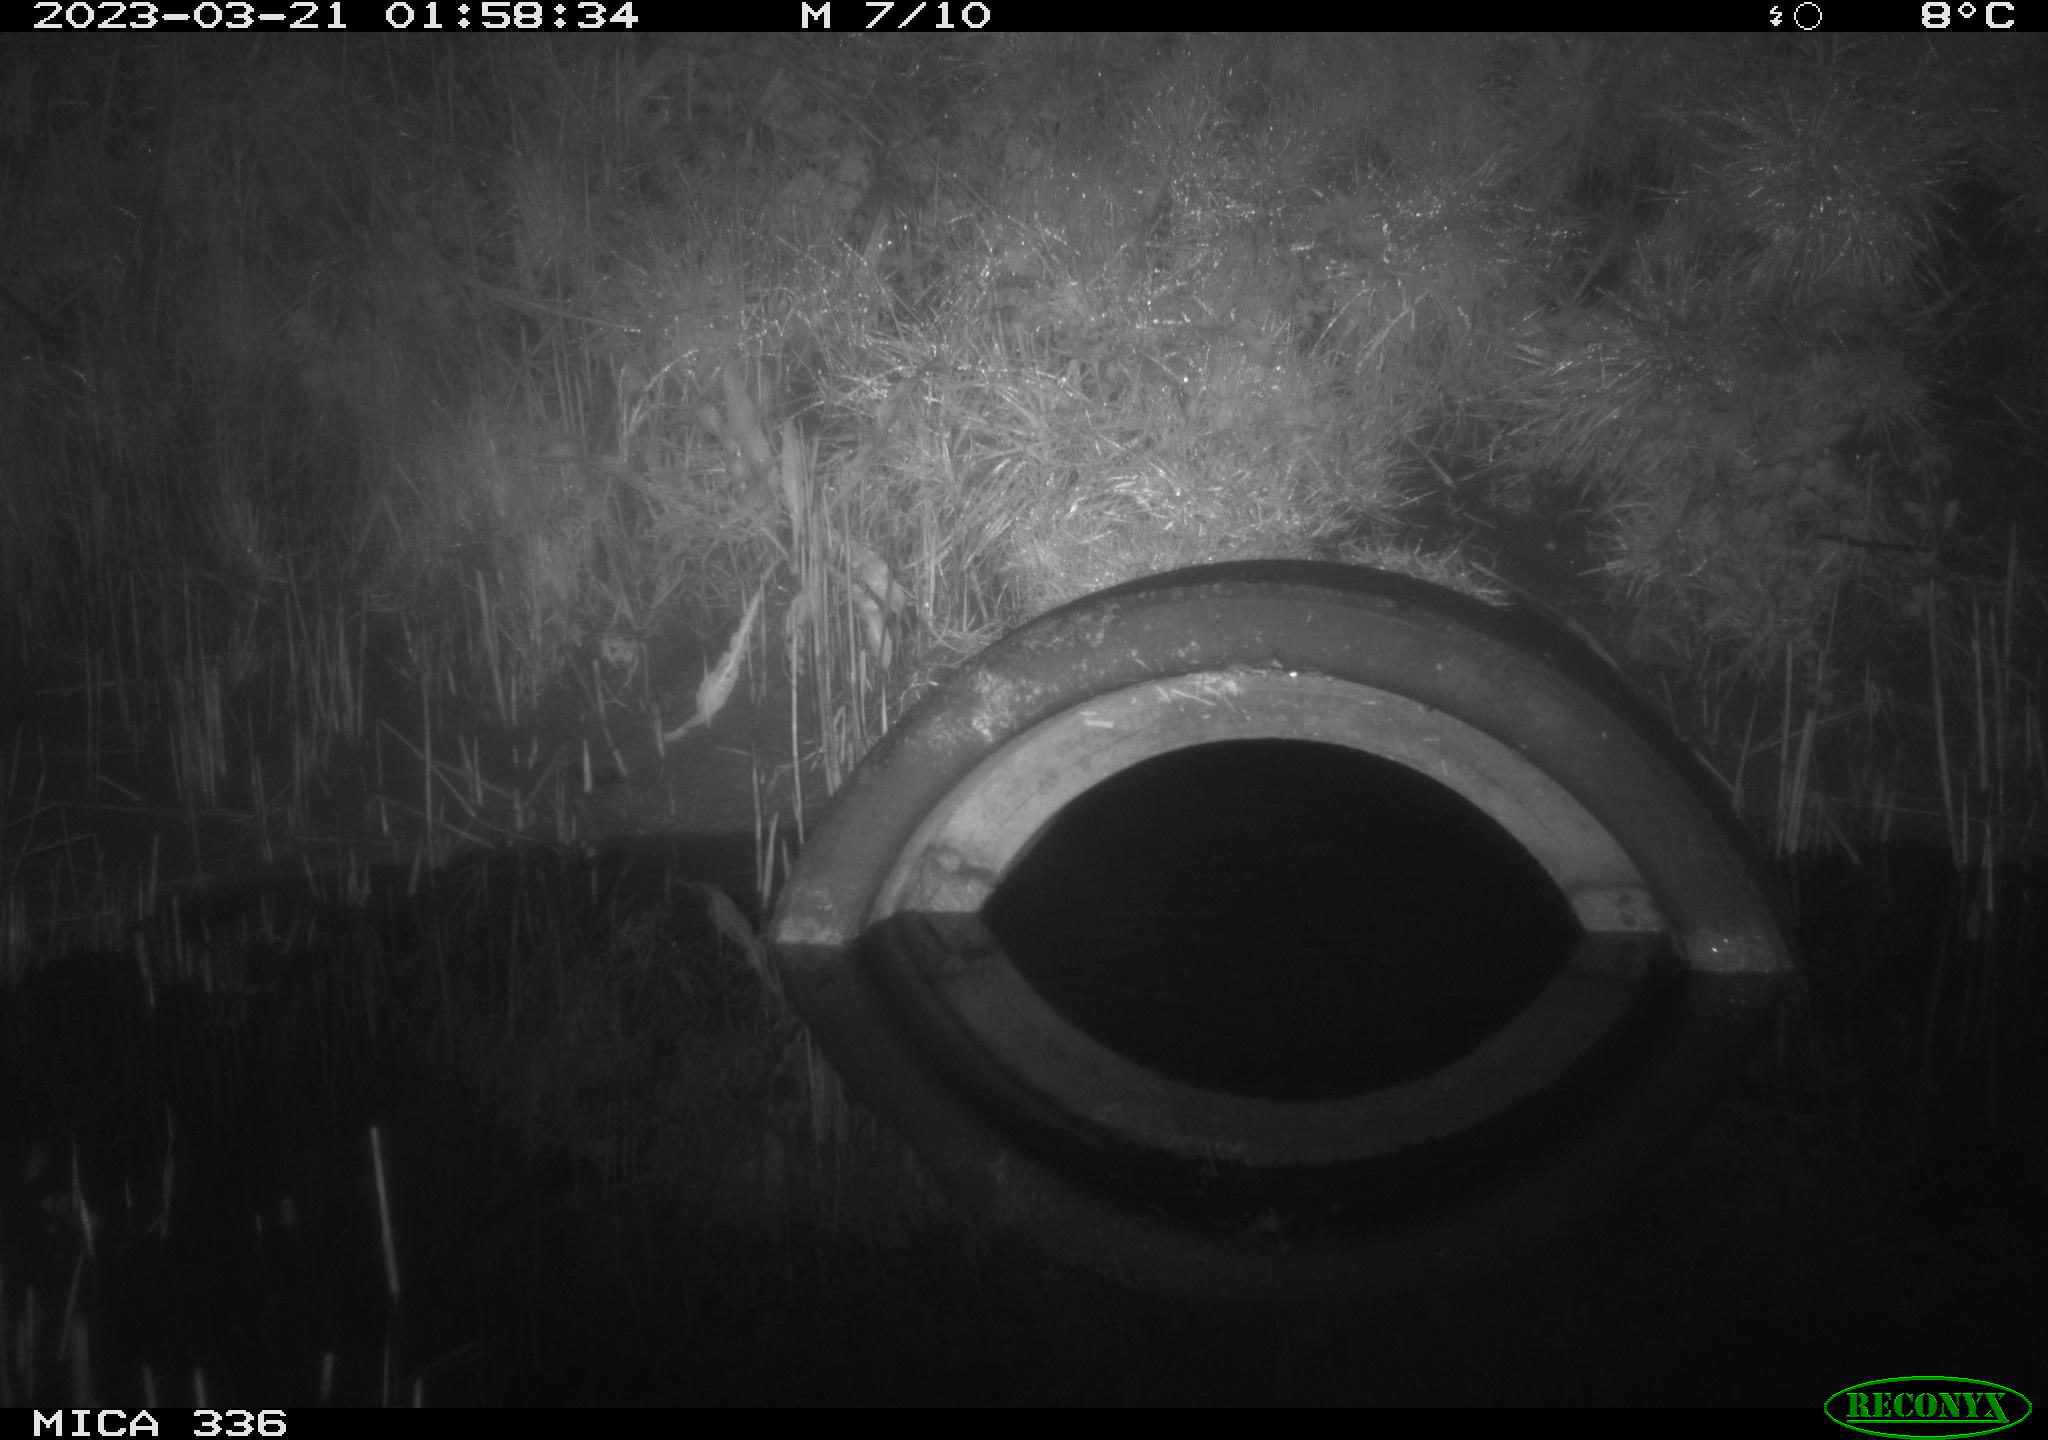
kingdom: Animalia
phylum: Chordata
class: Mammalia
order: Rodentia
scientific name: Rodentia
